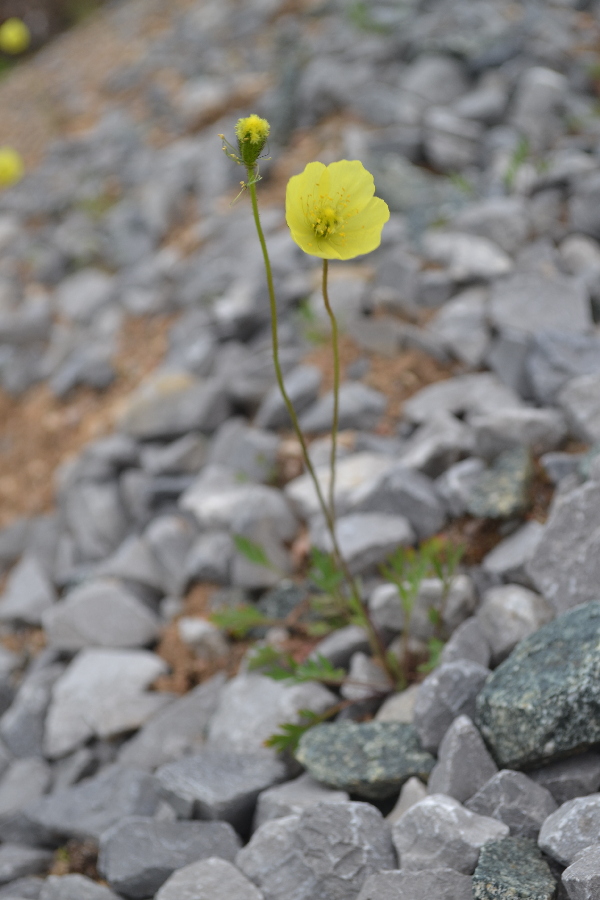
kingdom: Plantae
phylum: Tracheophyta
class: Magnoliopsida
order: Ranunculales
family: Papaveraceae
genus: Papaver
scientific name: Papaver lapponicum
